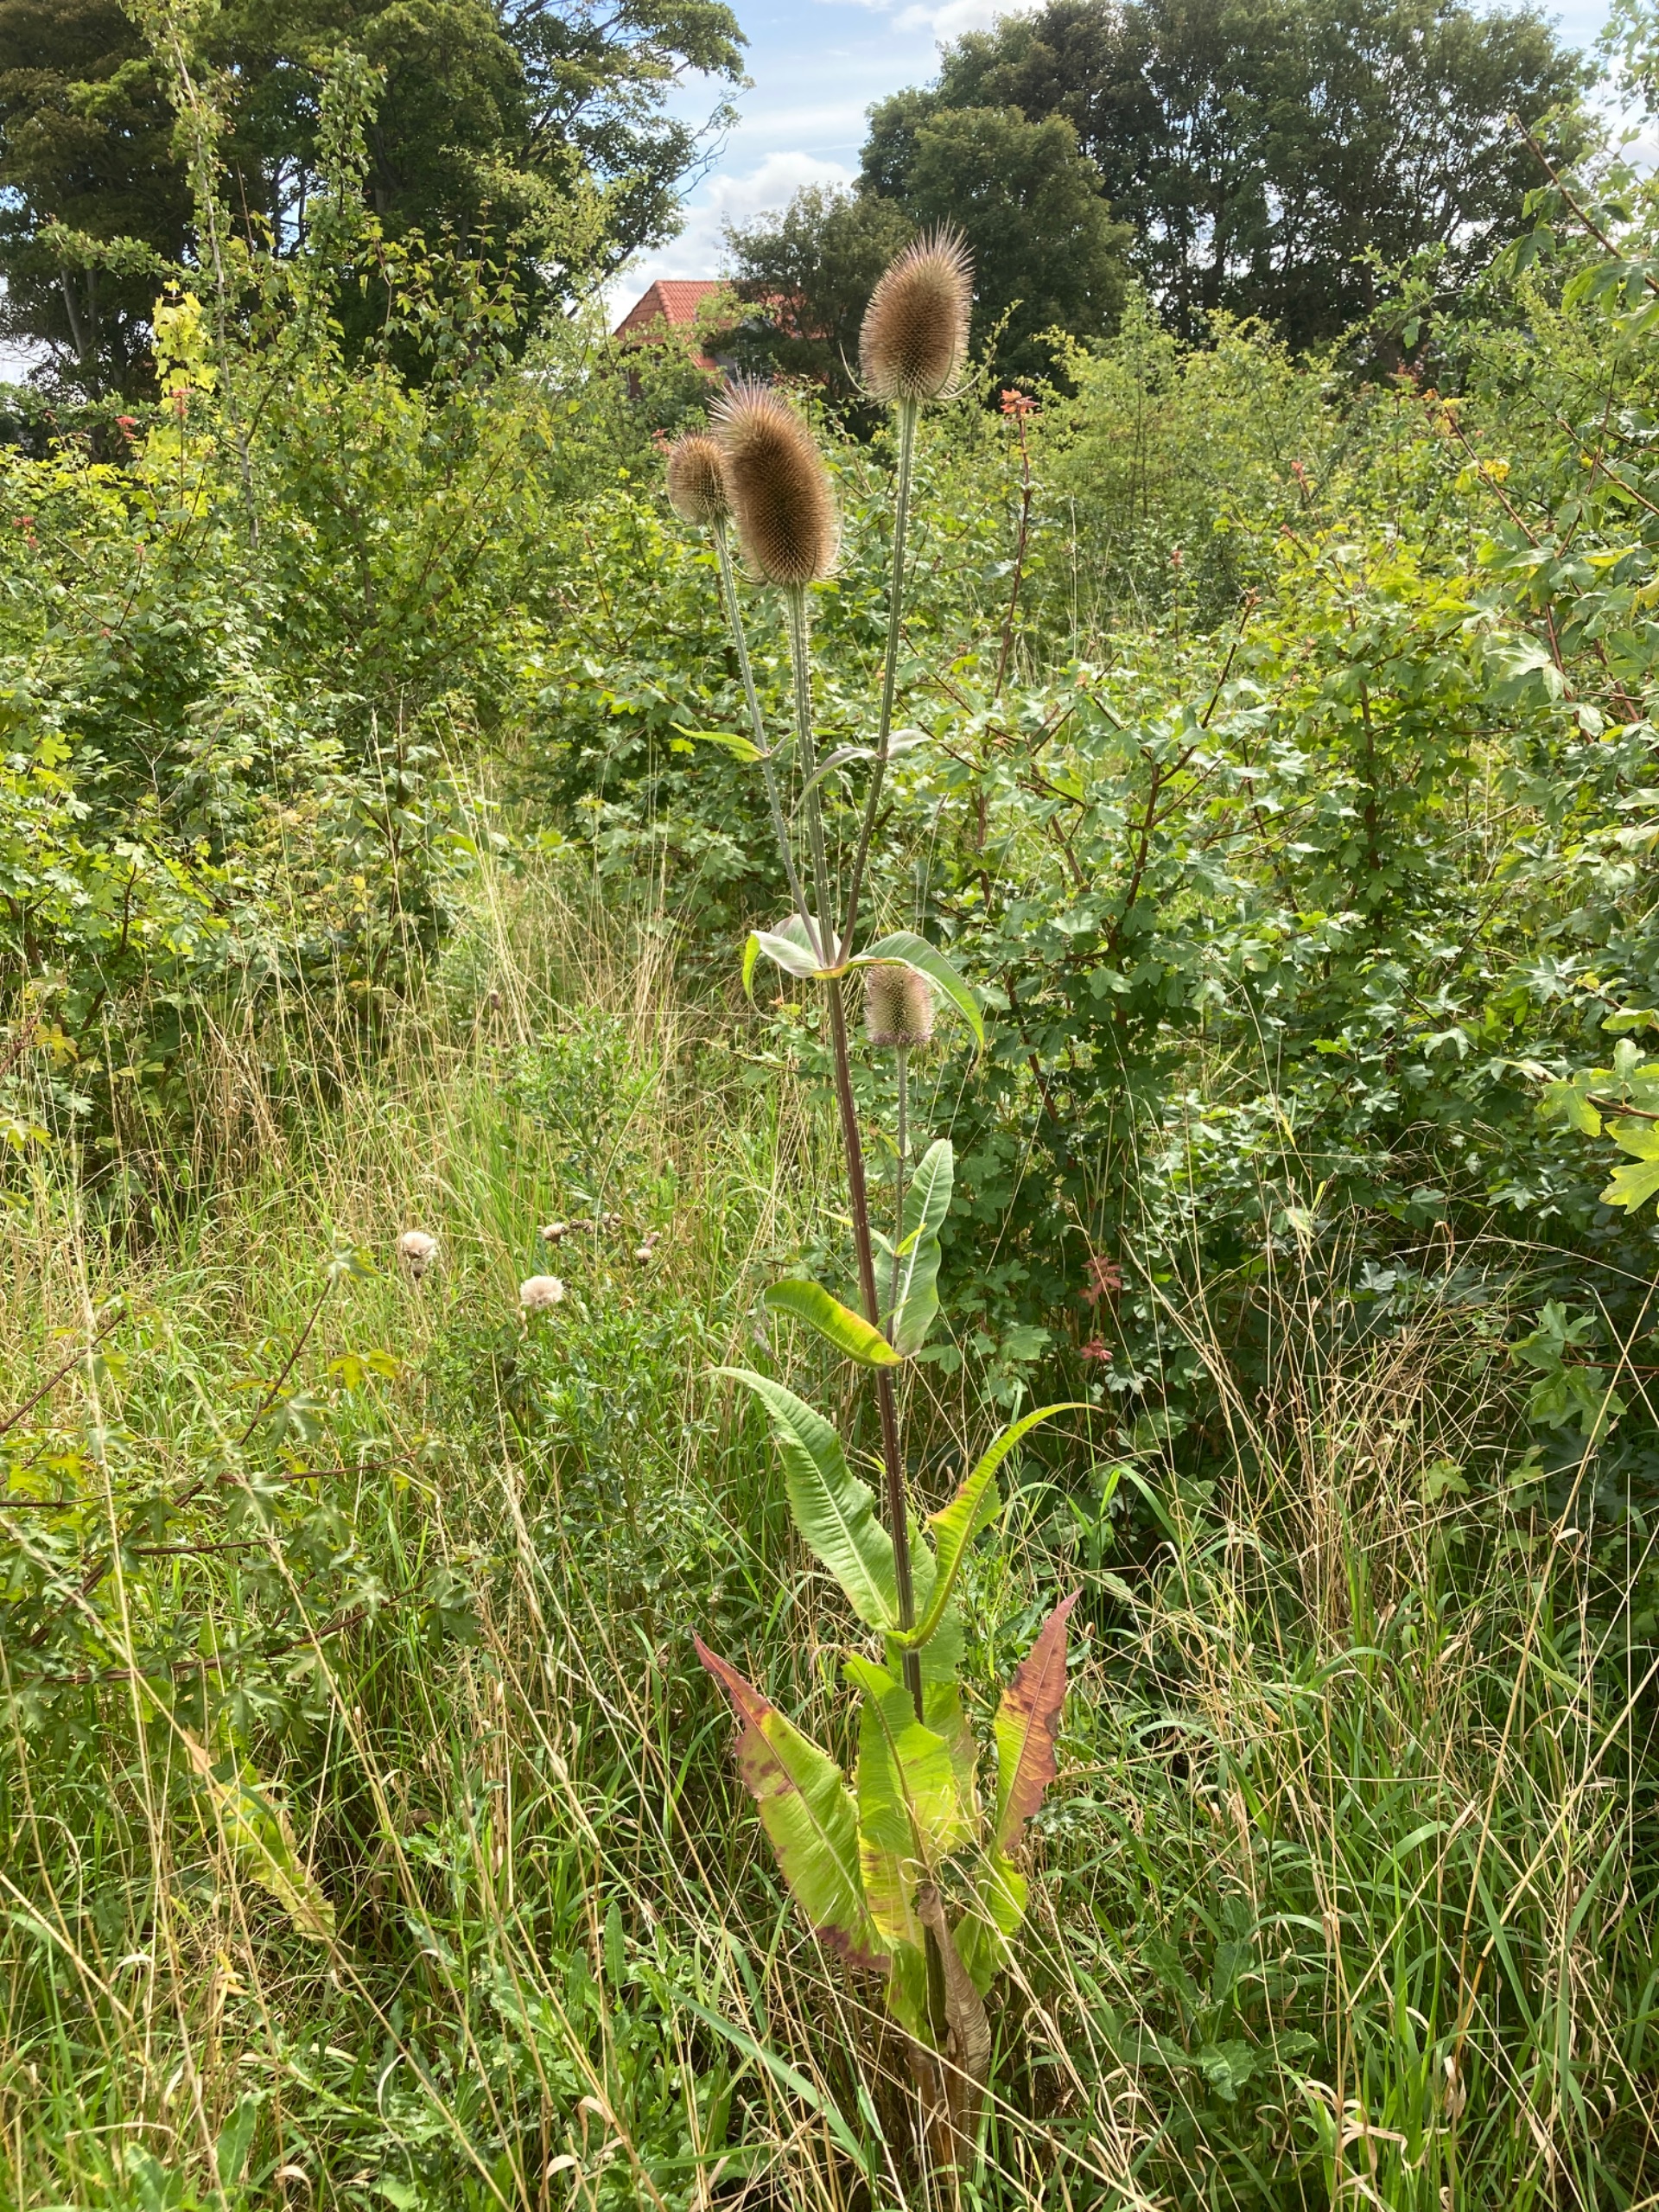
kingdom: Plantae
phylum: Tracheophyta
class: Magnoliopsida
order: Dipsacales
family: Caprifoliaceae
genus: Dipsacus
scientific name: Dipsacus fullonum
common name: Gærde-kartebolle
